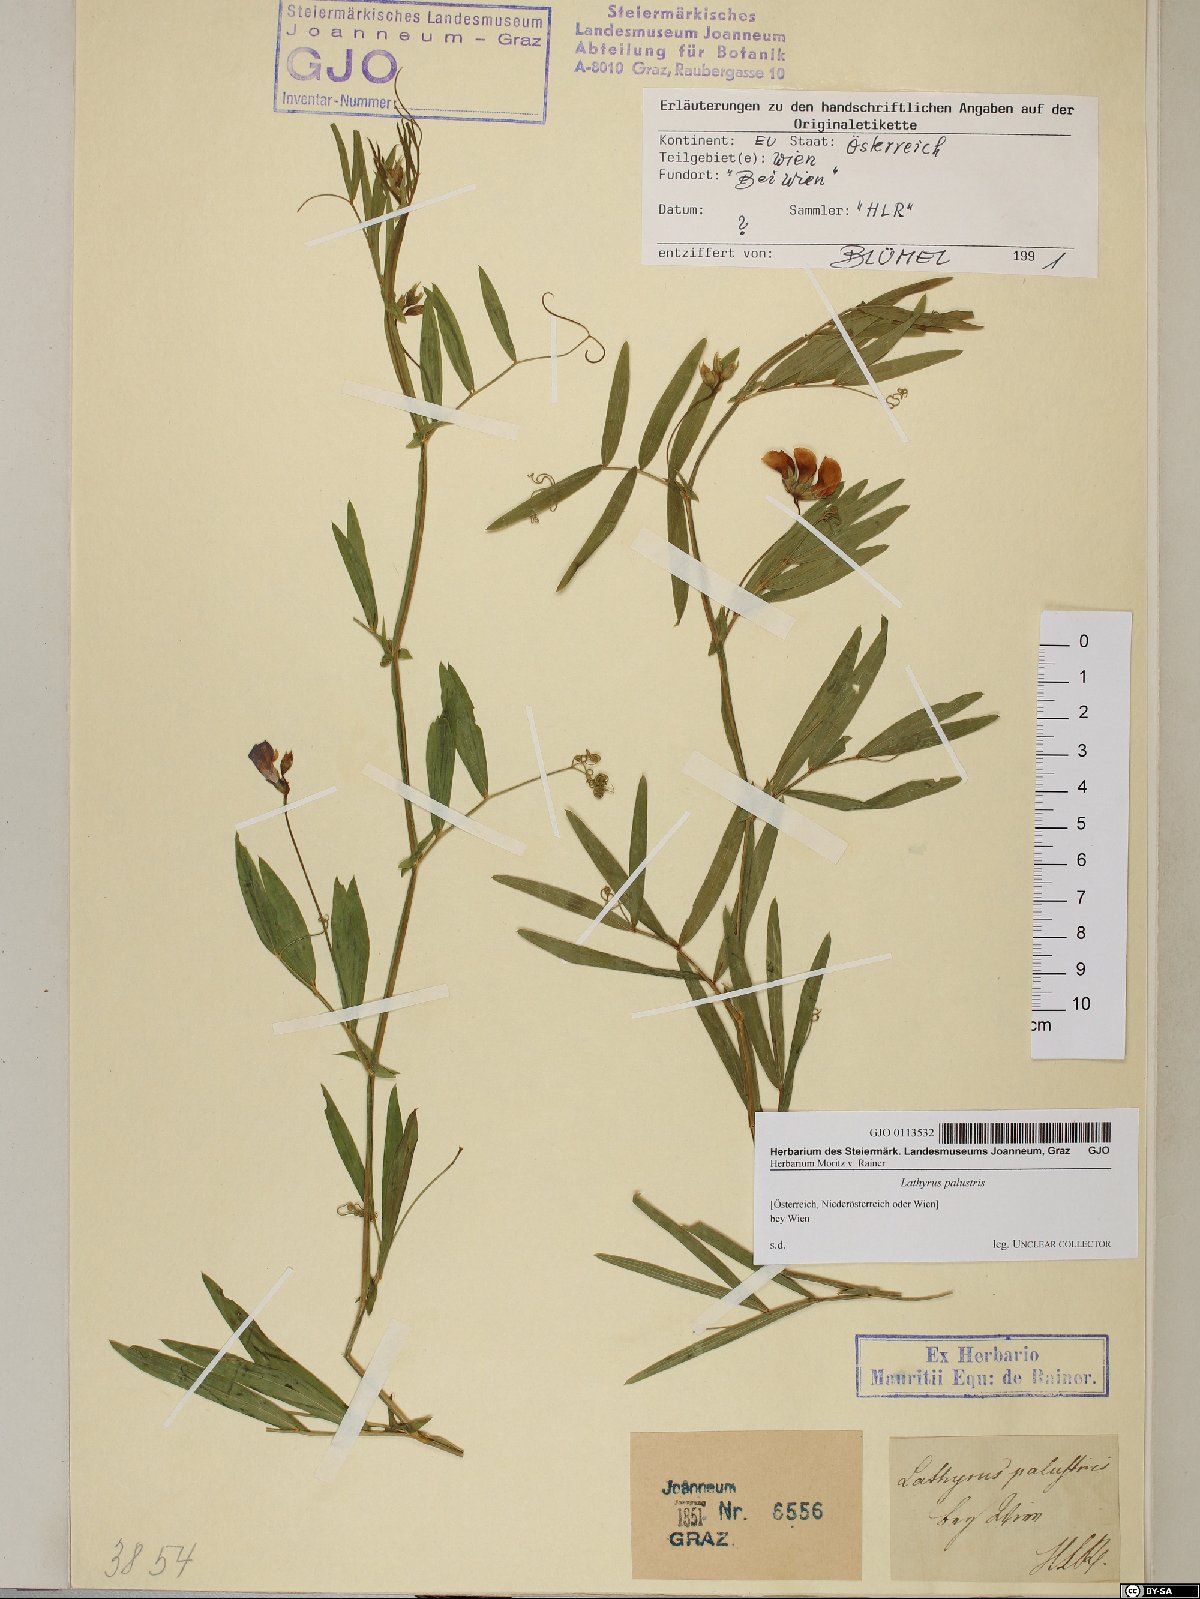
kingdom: Plantae
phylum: Tracheophyta
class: Magnoliopsida
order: Fabales
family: Fabaceae
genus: Lathyrus
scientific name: Lathyrus palustris
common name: Marsh pea
